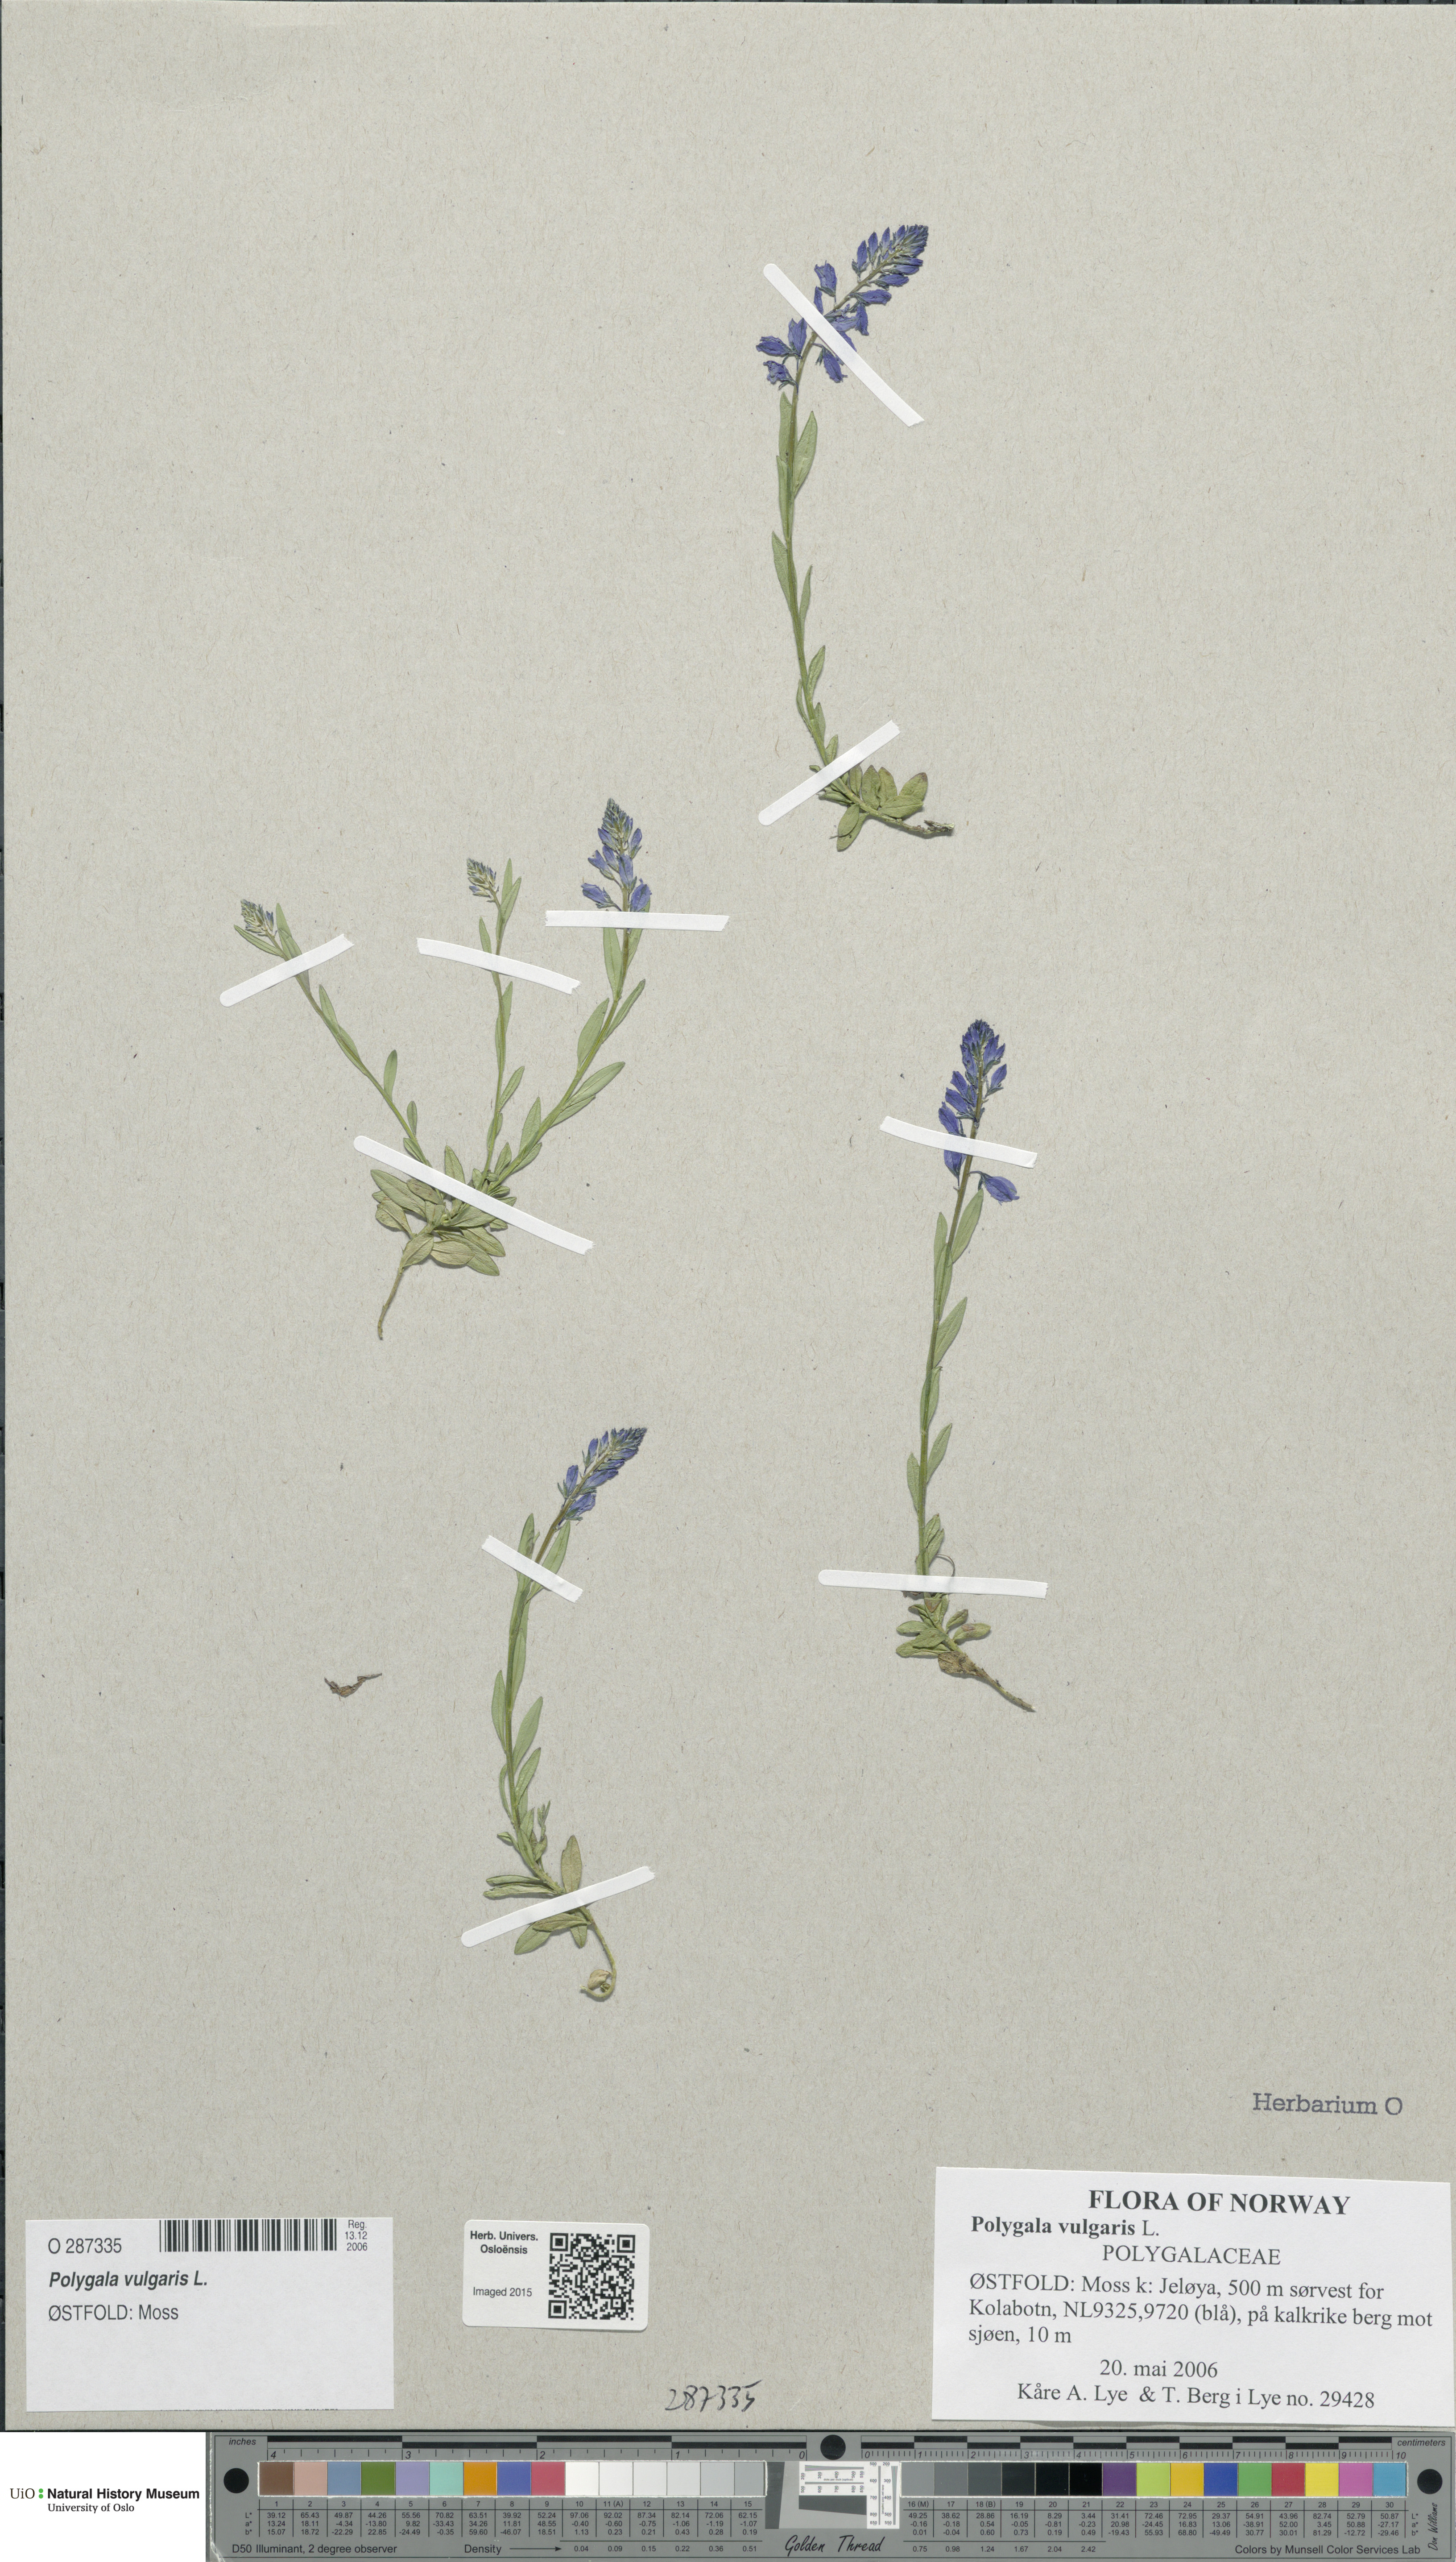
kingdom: Plantae
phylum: Tracheophyta
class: Magnoliopsida
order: Fabales
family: Polygalaceae
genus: Polygala
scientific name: Polygala vulgaris
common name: Common milkwort
